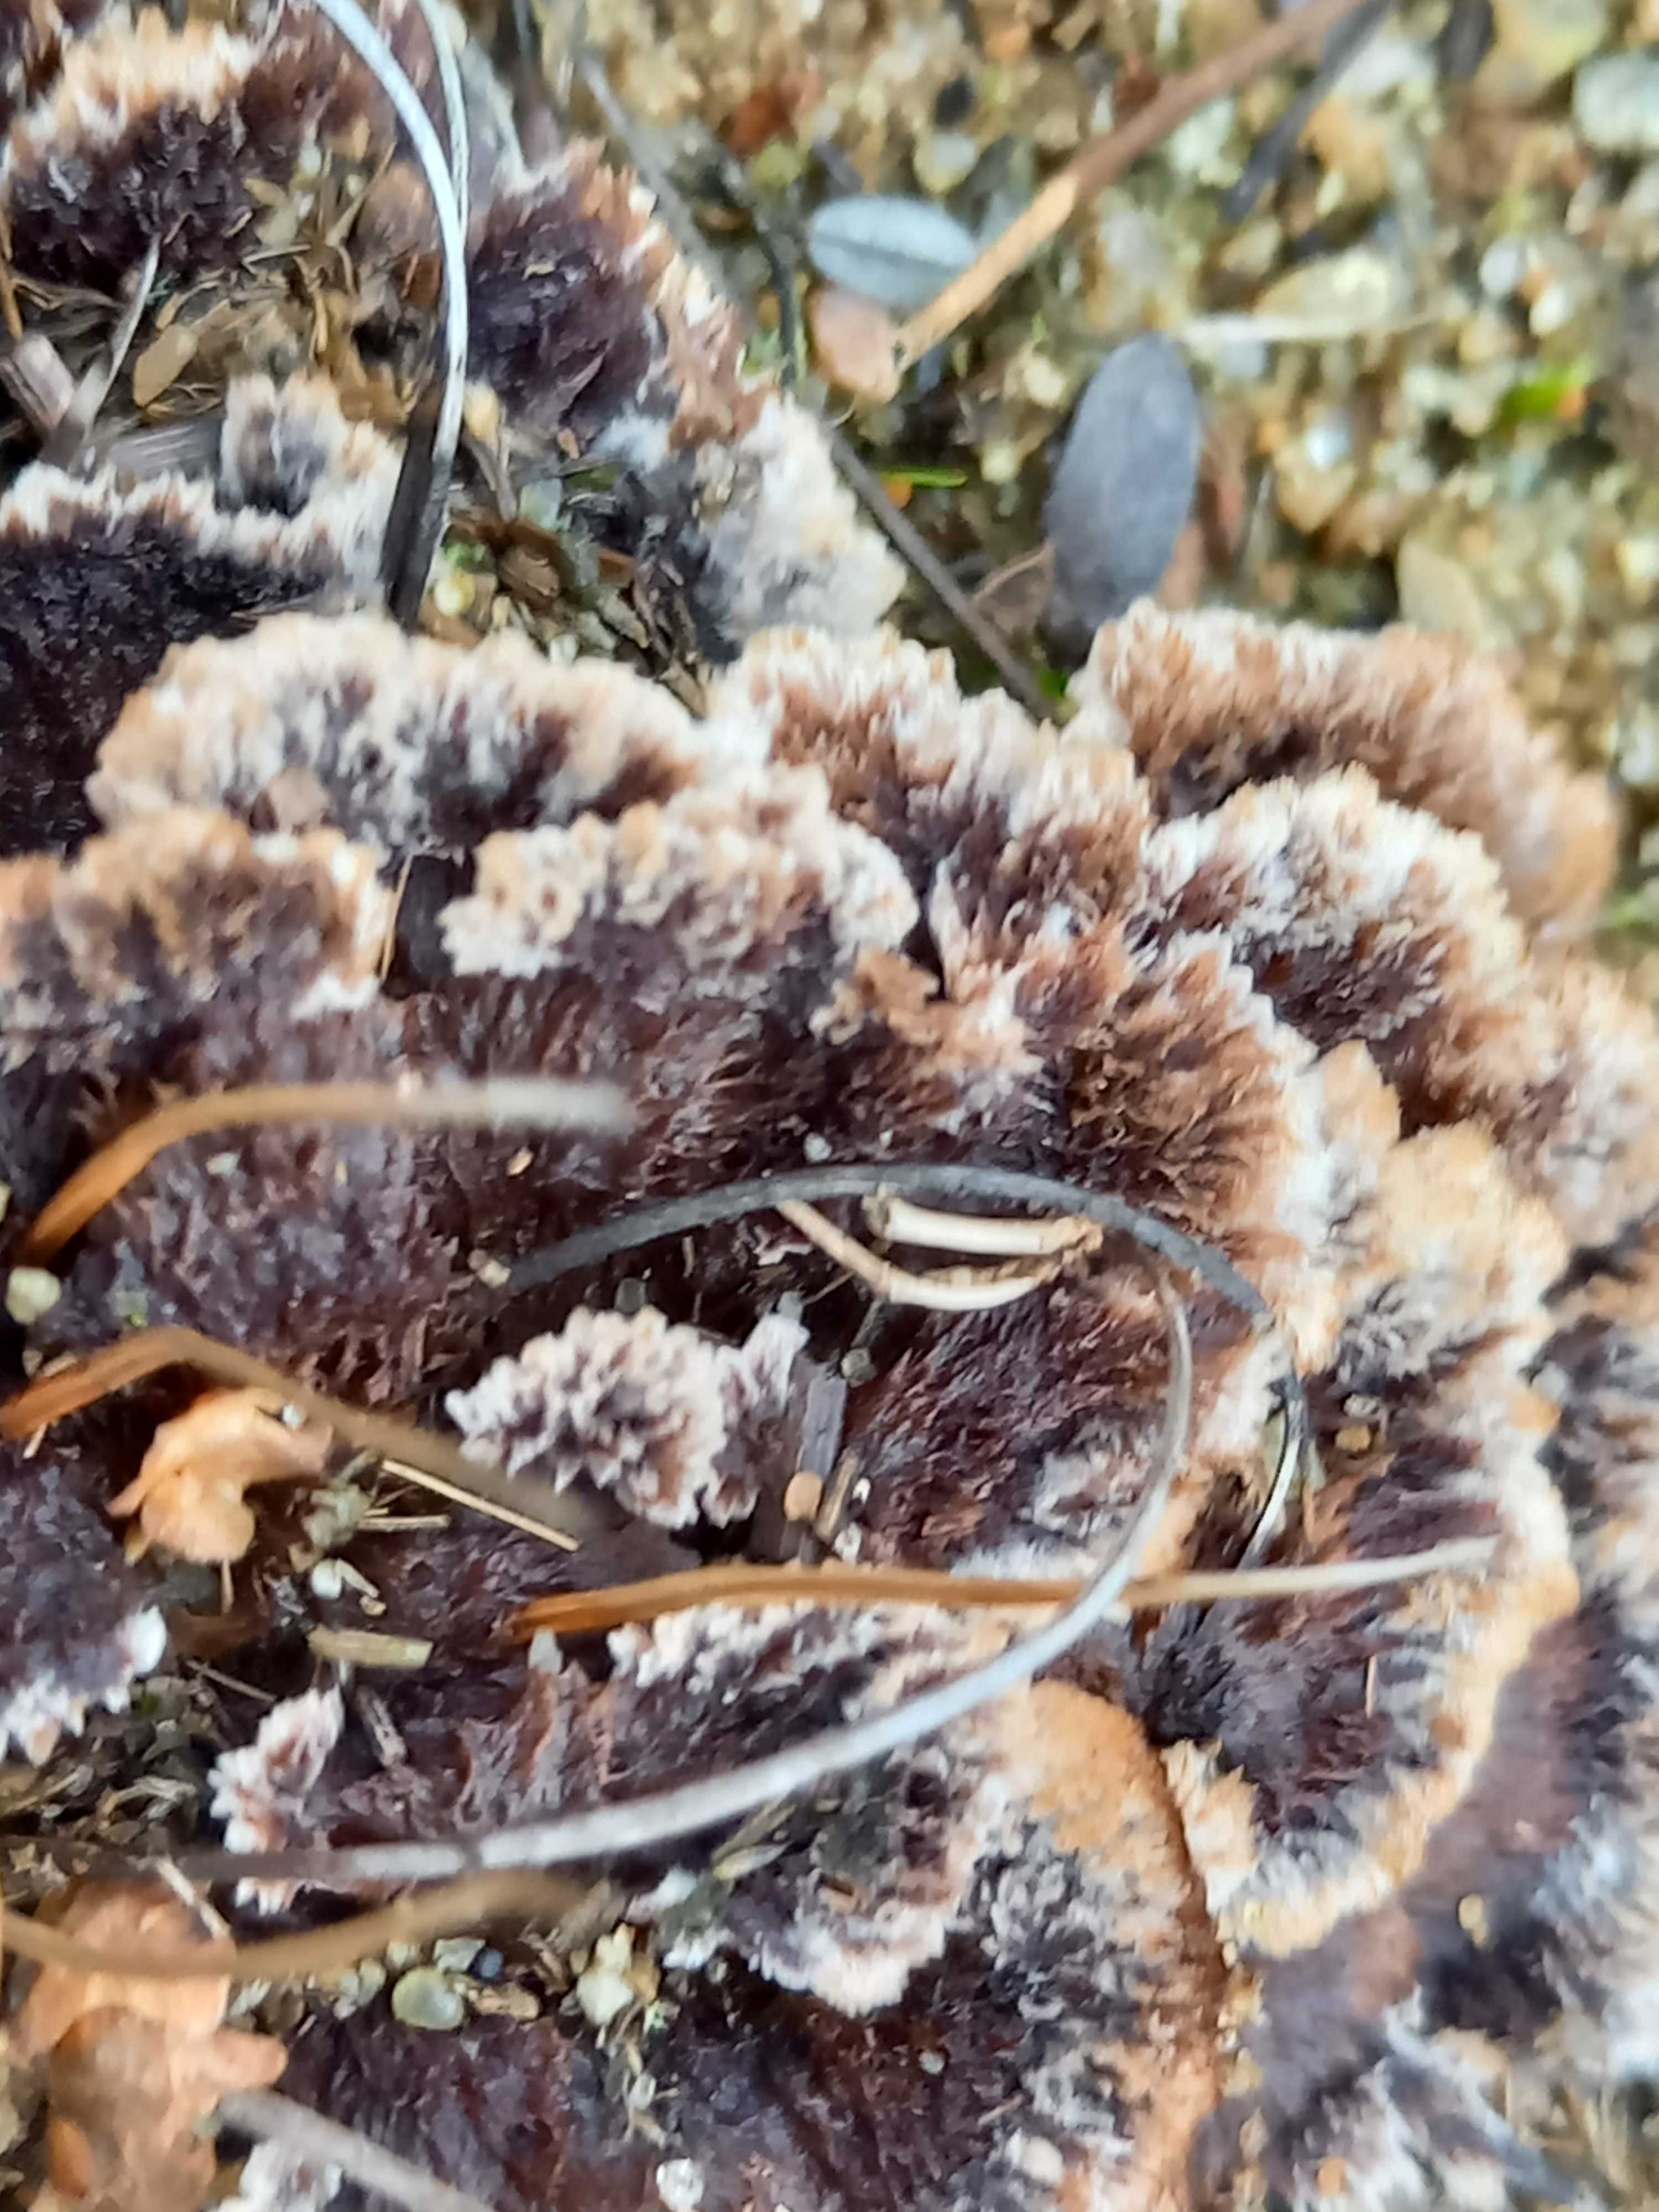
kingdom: Fungi
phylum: Basidiomycota
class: Agaricomycetes
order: Thelephorales
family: Thelephoraceae
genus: Thelephora
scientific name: Thelephora terrestris
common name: fliget frynsesvamp
